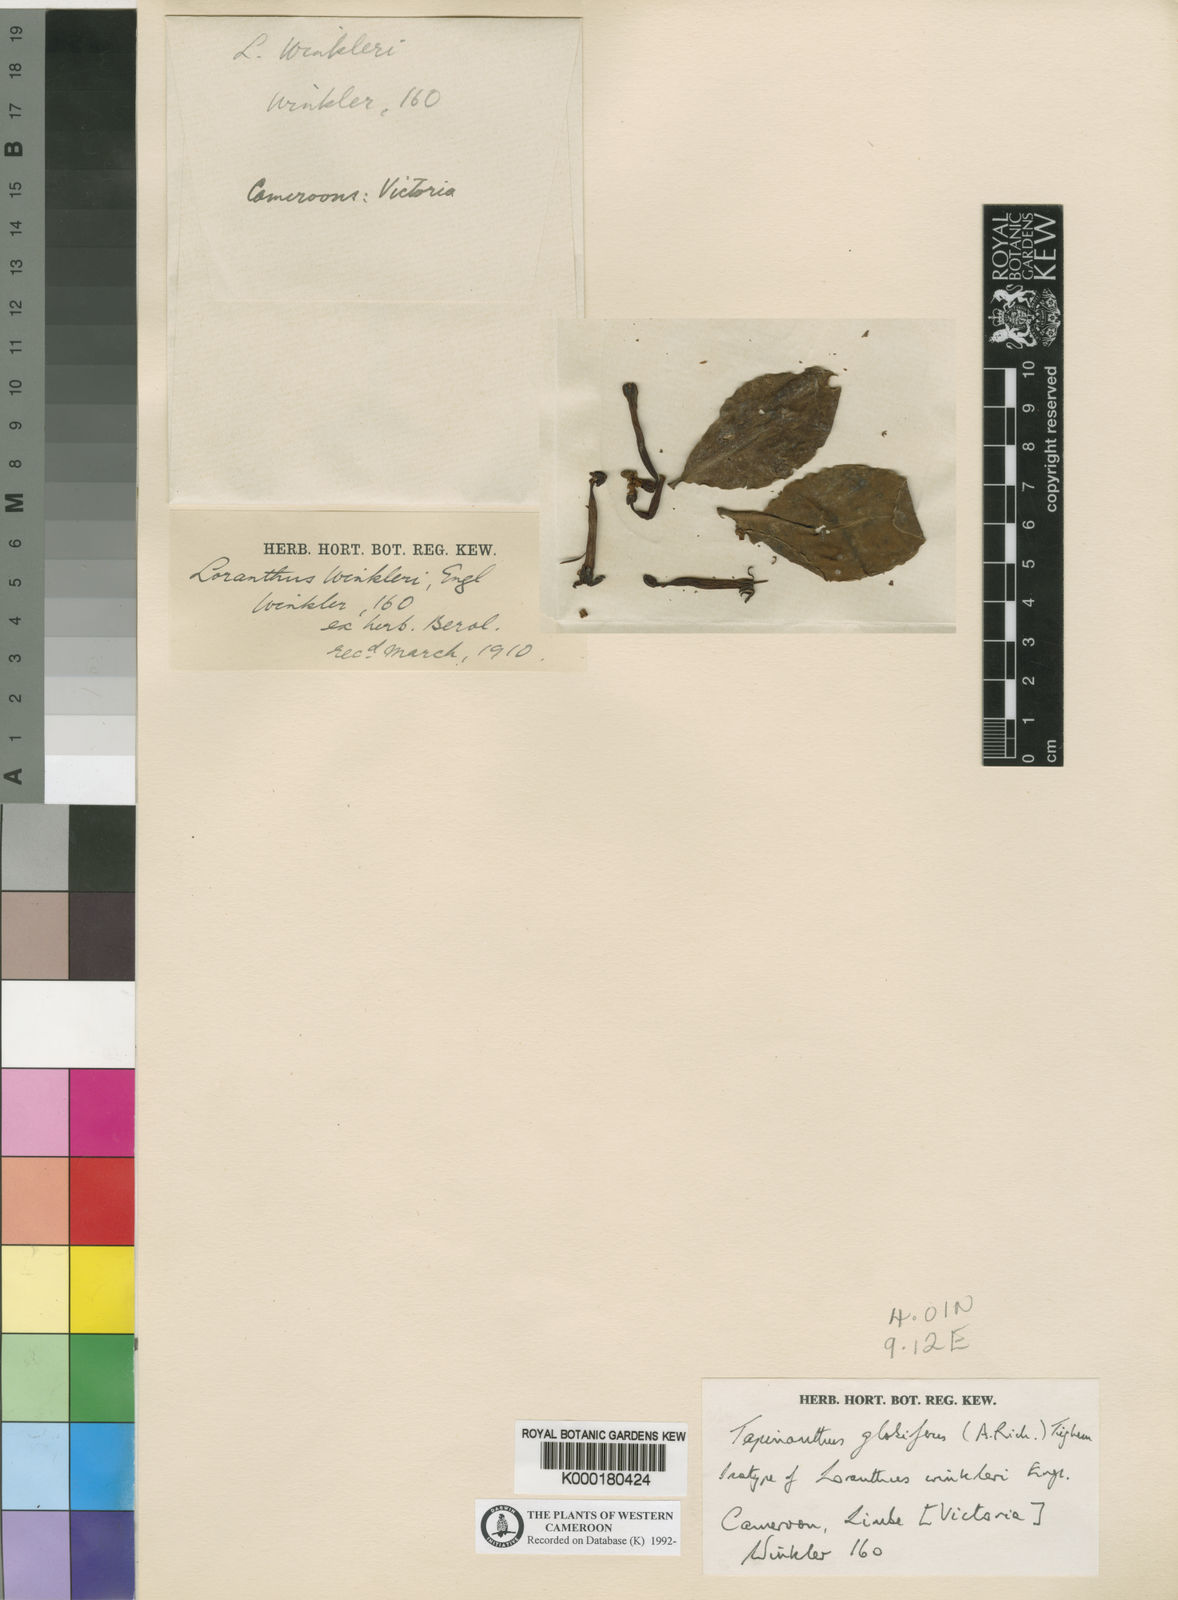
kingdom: Plantae
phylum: Tracheophyta
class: Magnoliopsida
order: Santalales
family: Loranthaceae
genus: Tapinanthus
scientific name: Tapinanthus
